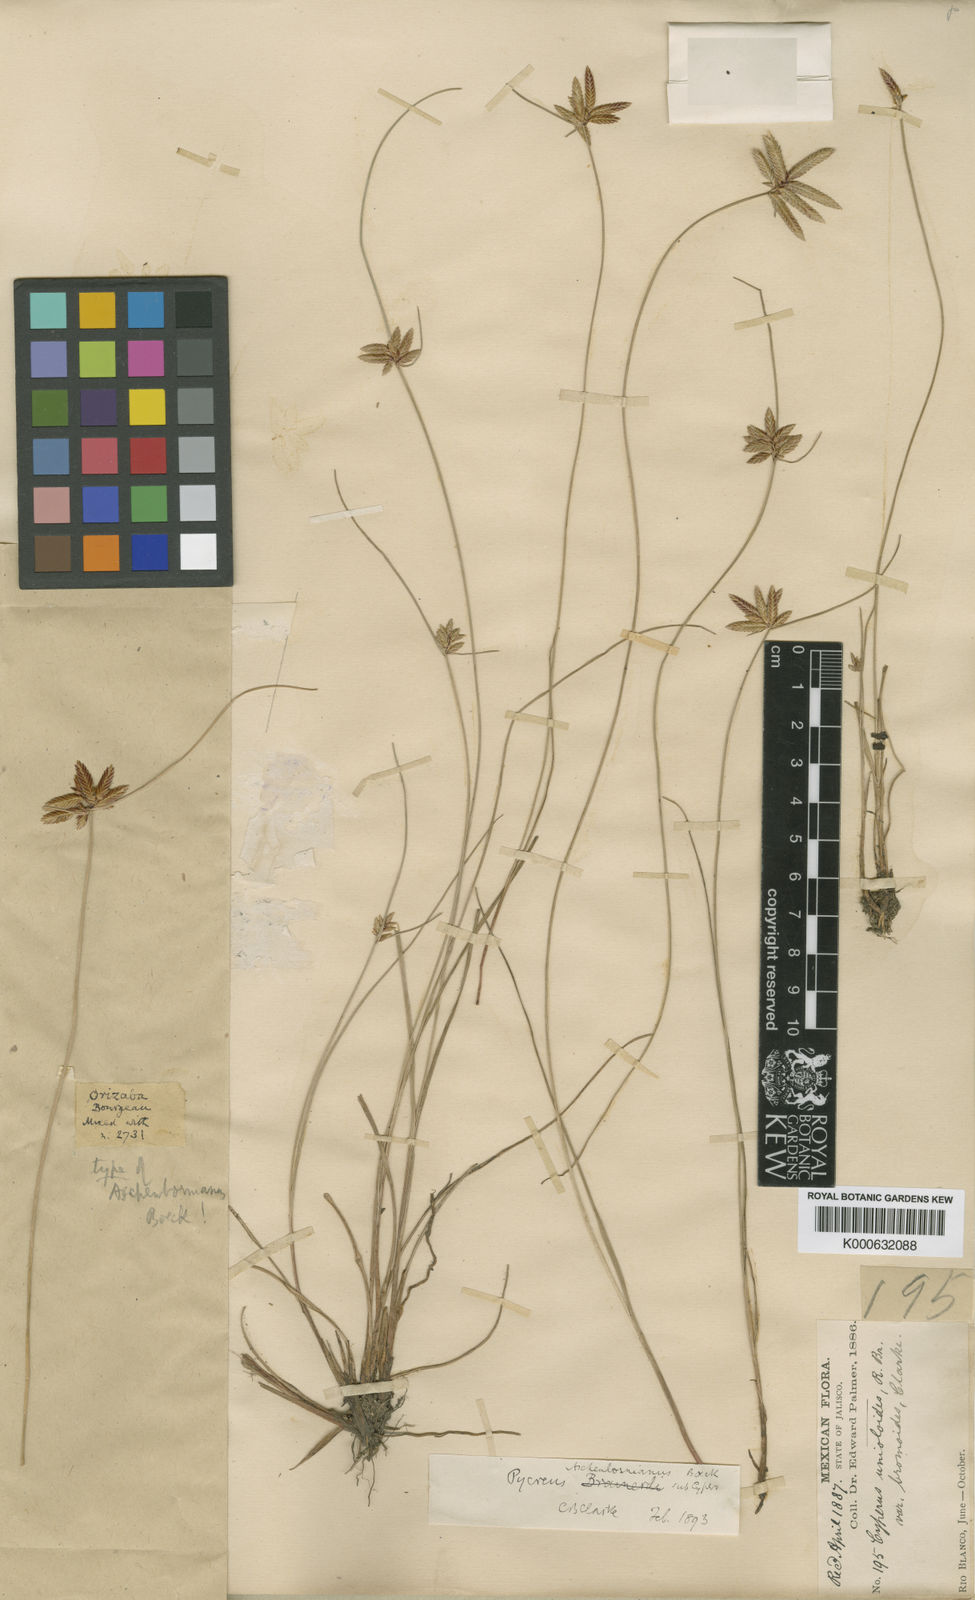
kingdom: Plantae
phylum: Tracheophyta
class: Liliopsida
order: Poales
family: Cyperaceae
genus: Cyperus
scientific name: Cyperus aschenbornianus
